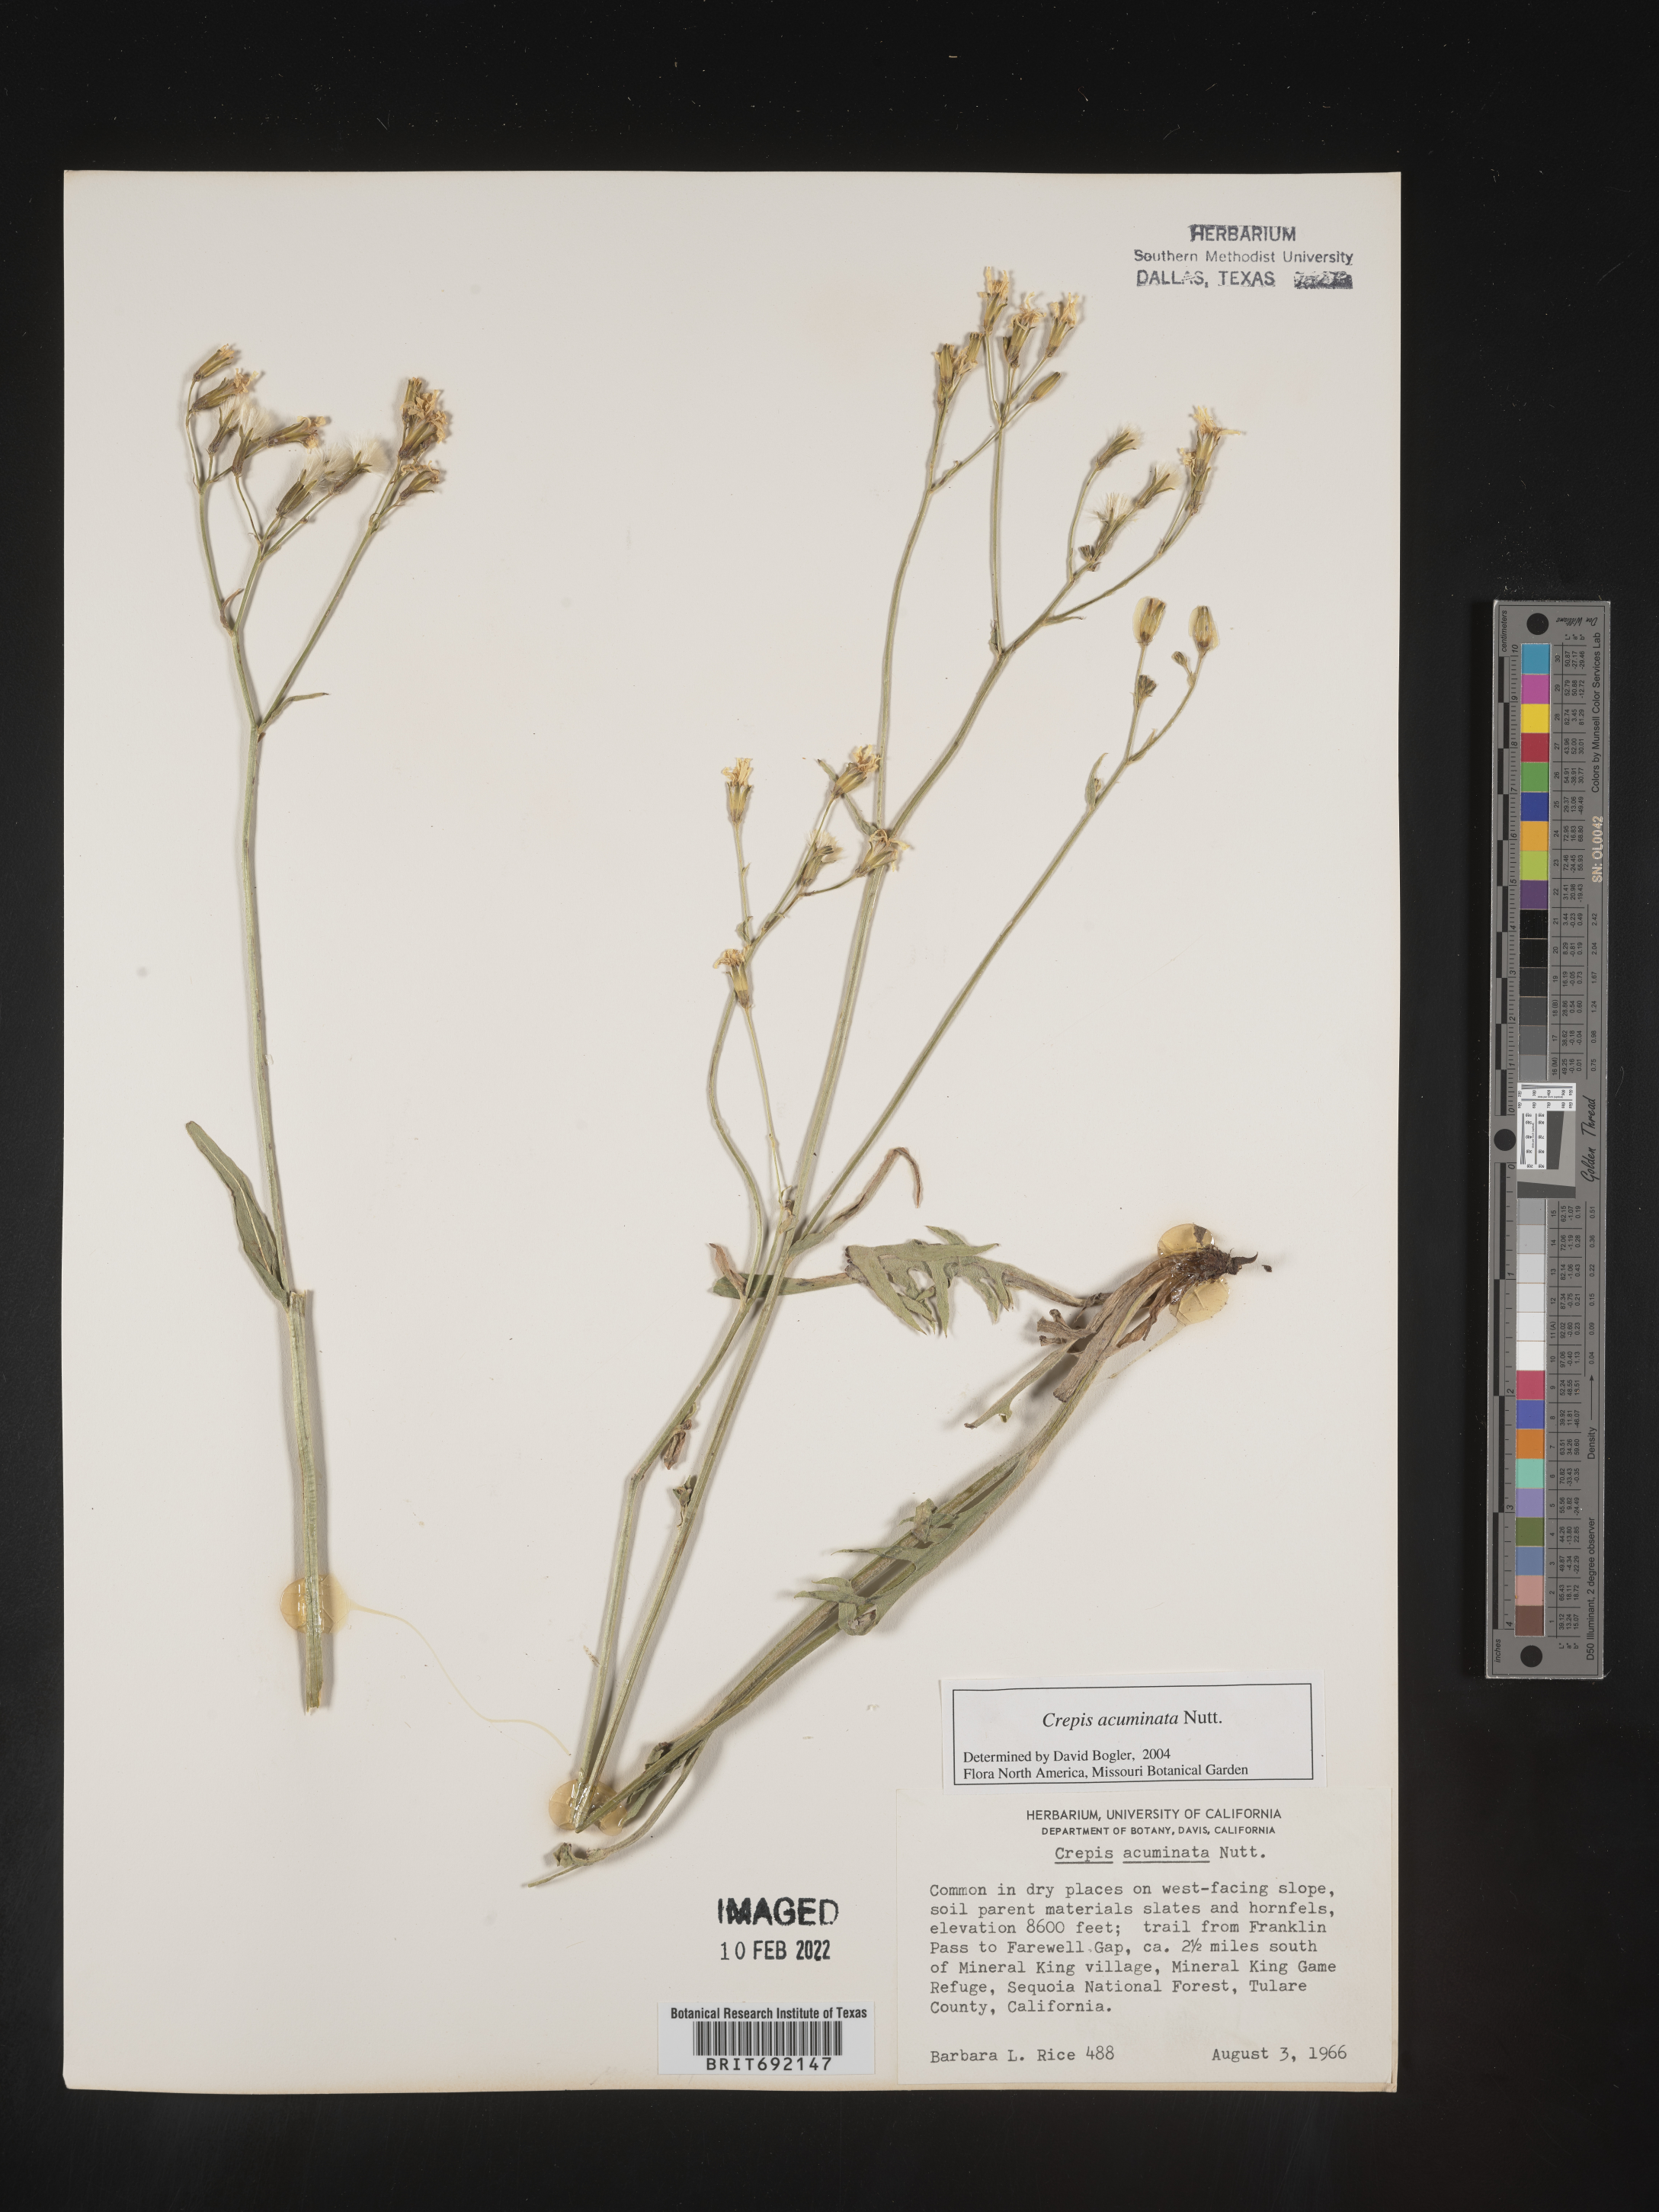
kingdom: Plantae
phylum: Tracheophyta
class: Magnoliopsida
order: Asterales
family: Asteraceae
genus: Crepis
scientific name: Crepis acuminata
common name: Longleaf hawk's-beard
